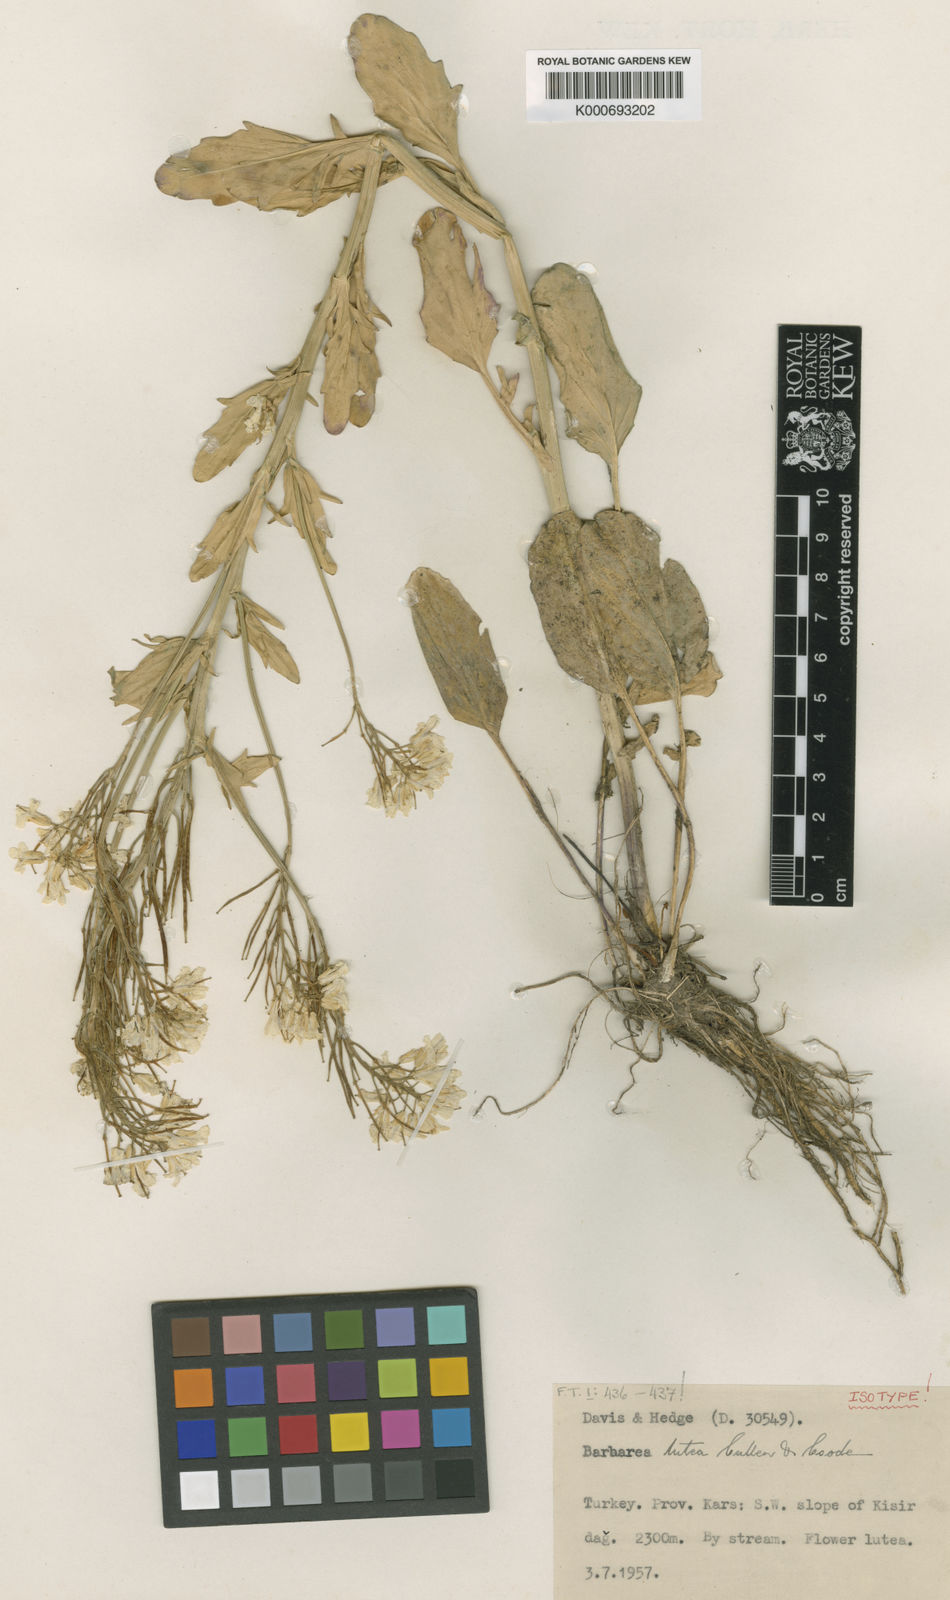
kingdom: Plantae
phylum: Tracheophyta
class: Magnoliopsida
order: Brassicales
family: Brassicaceae
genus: Barbarea
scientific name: Barbarea lutea
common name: Artvinian barbarea
